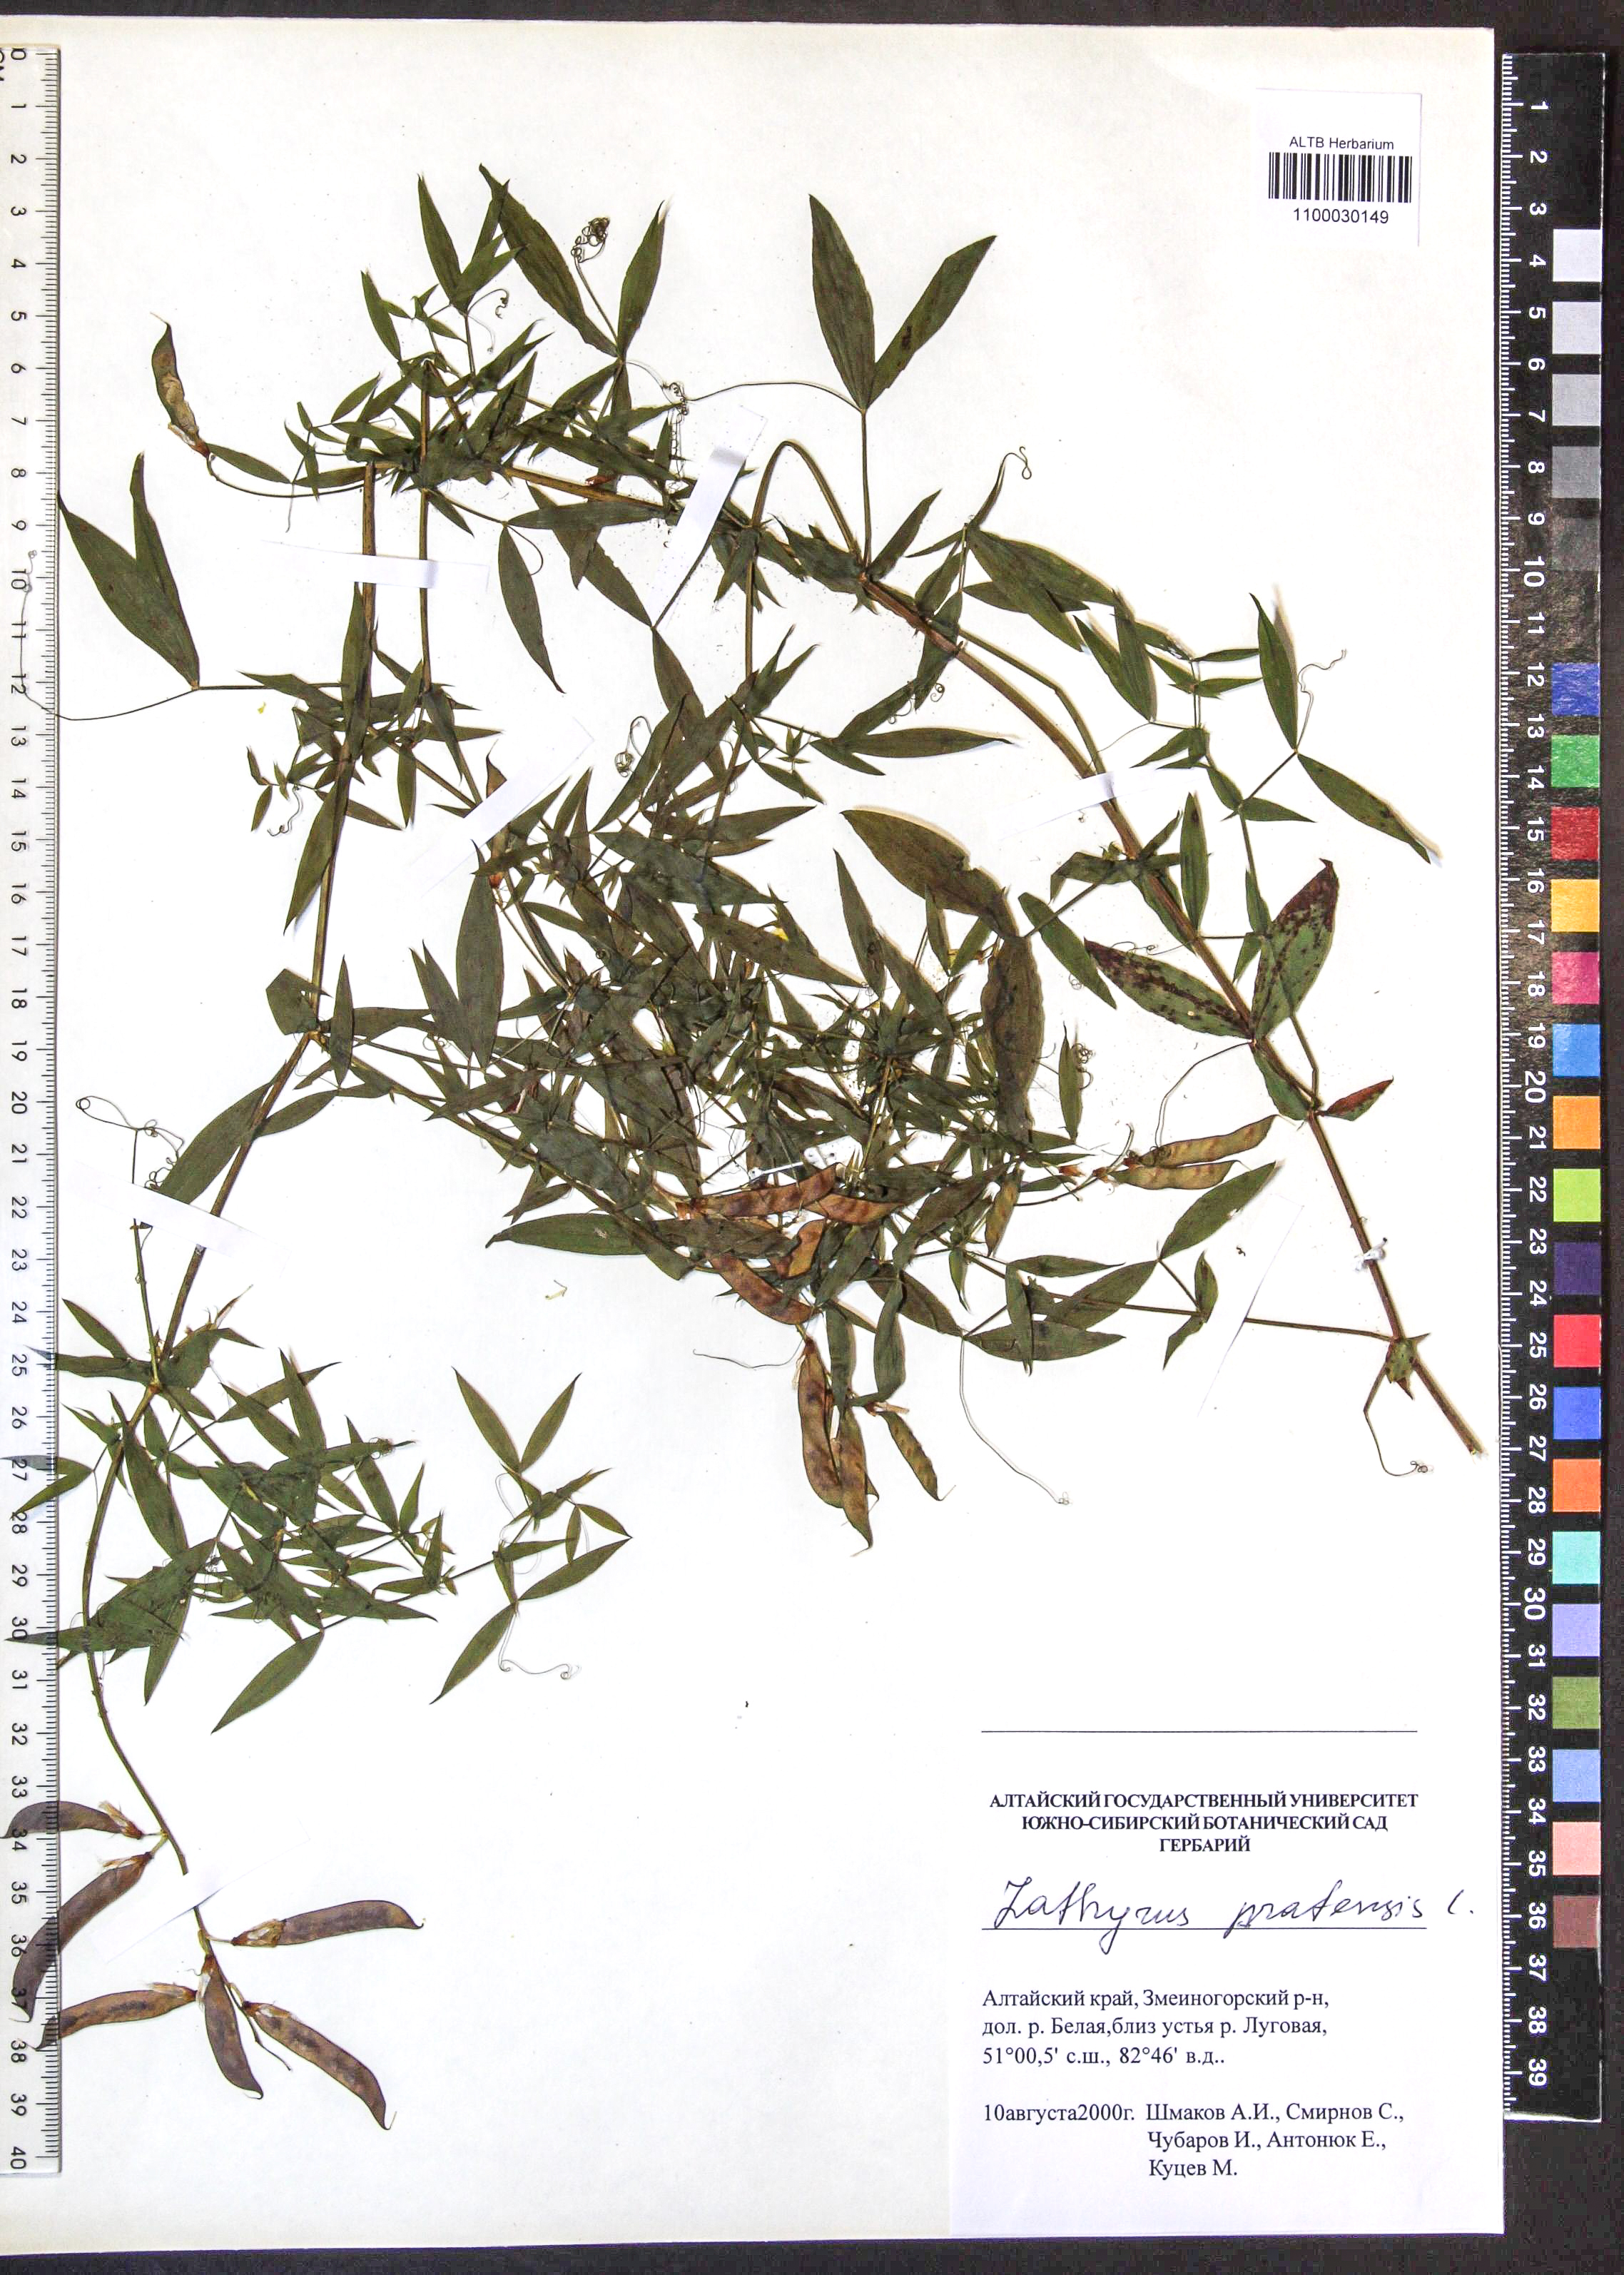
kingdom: Plantae
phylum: Tracheophyta
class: Magnoliopsida
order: Fabales
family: Fabaceae
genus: Lathyrus
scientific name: Lathyrus pratensis
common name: Meadow vetchling
